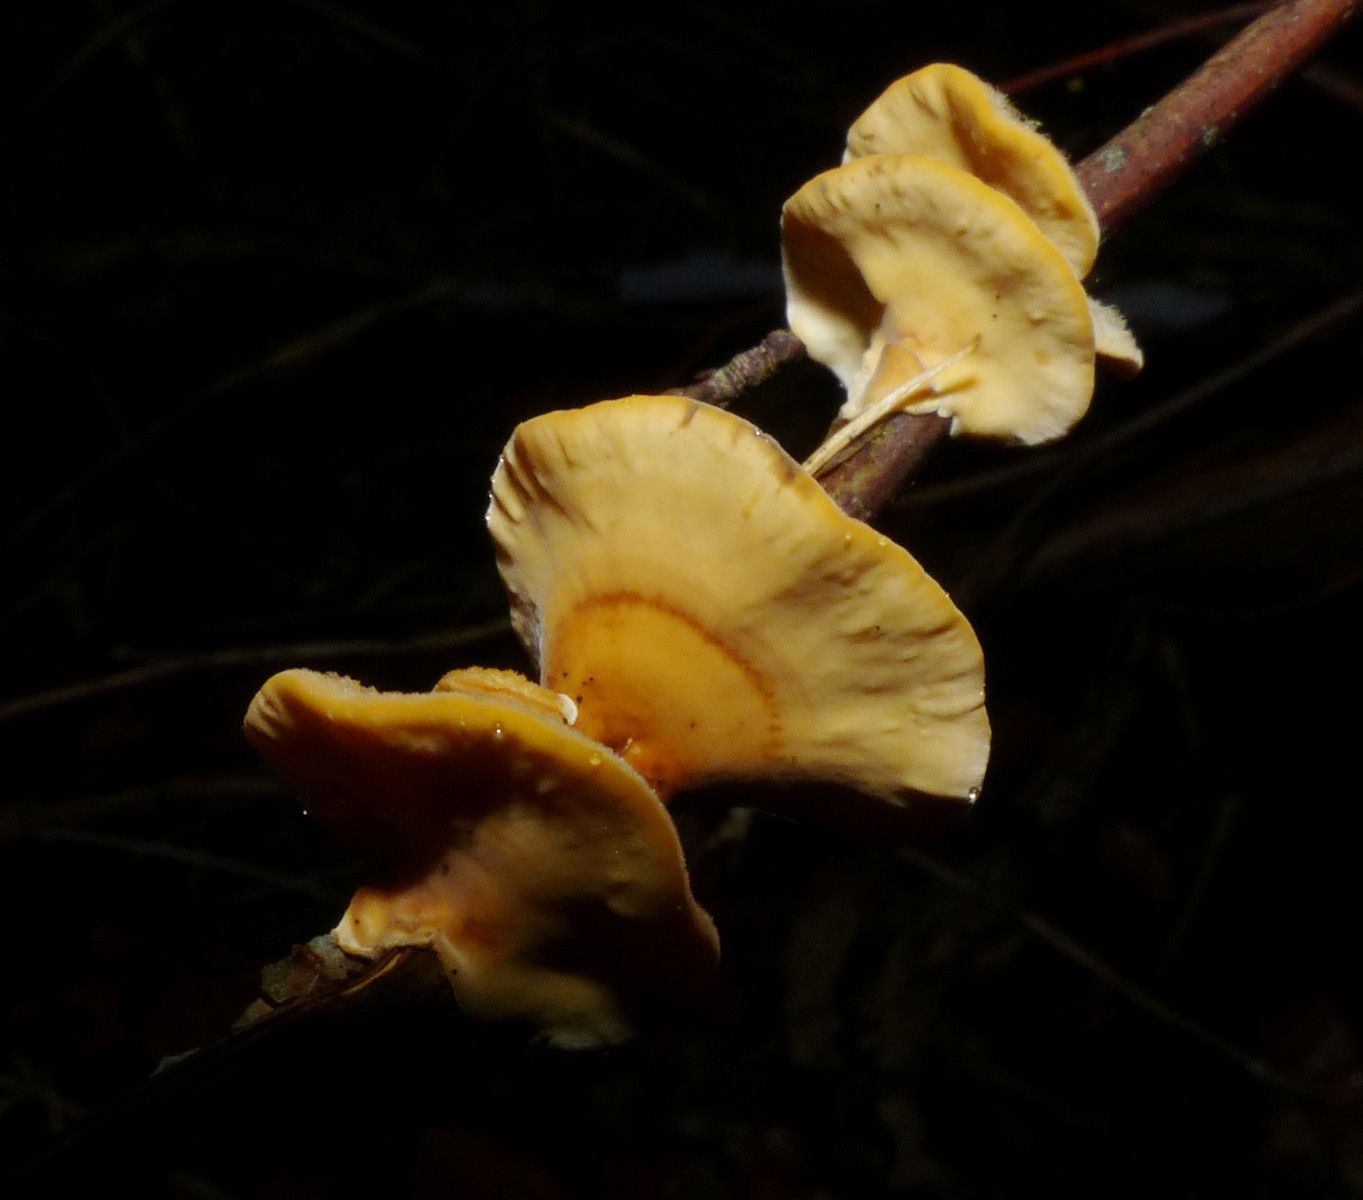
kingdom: Fungi
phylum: Basidiomycota
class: Agaricomycetes
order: Russulales
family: Stereaceae
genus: Stereum
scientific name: Stereum hirsutum
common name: håret lædersvamp
